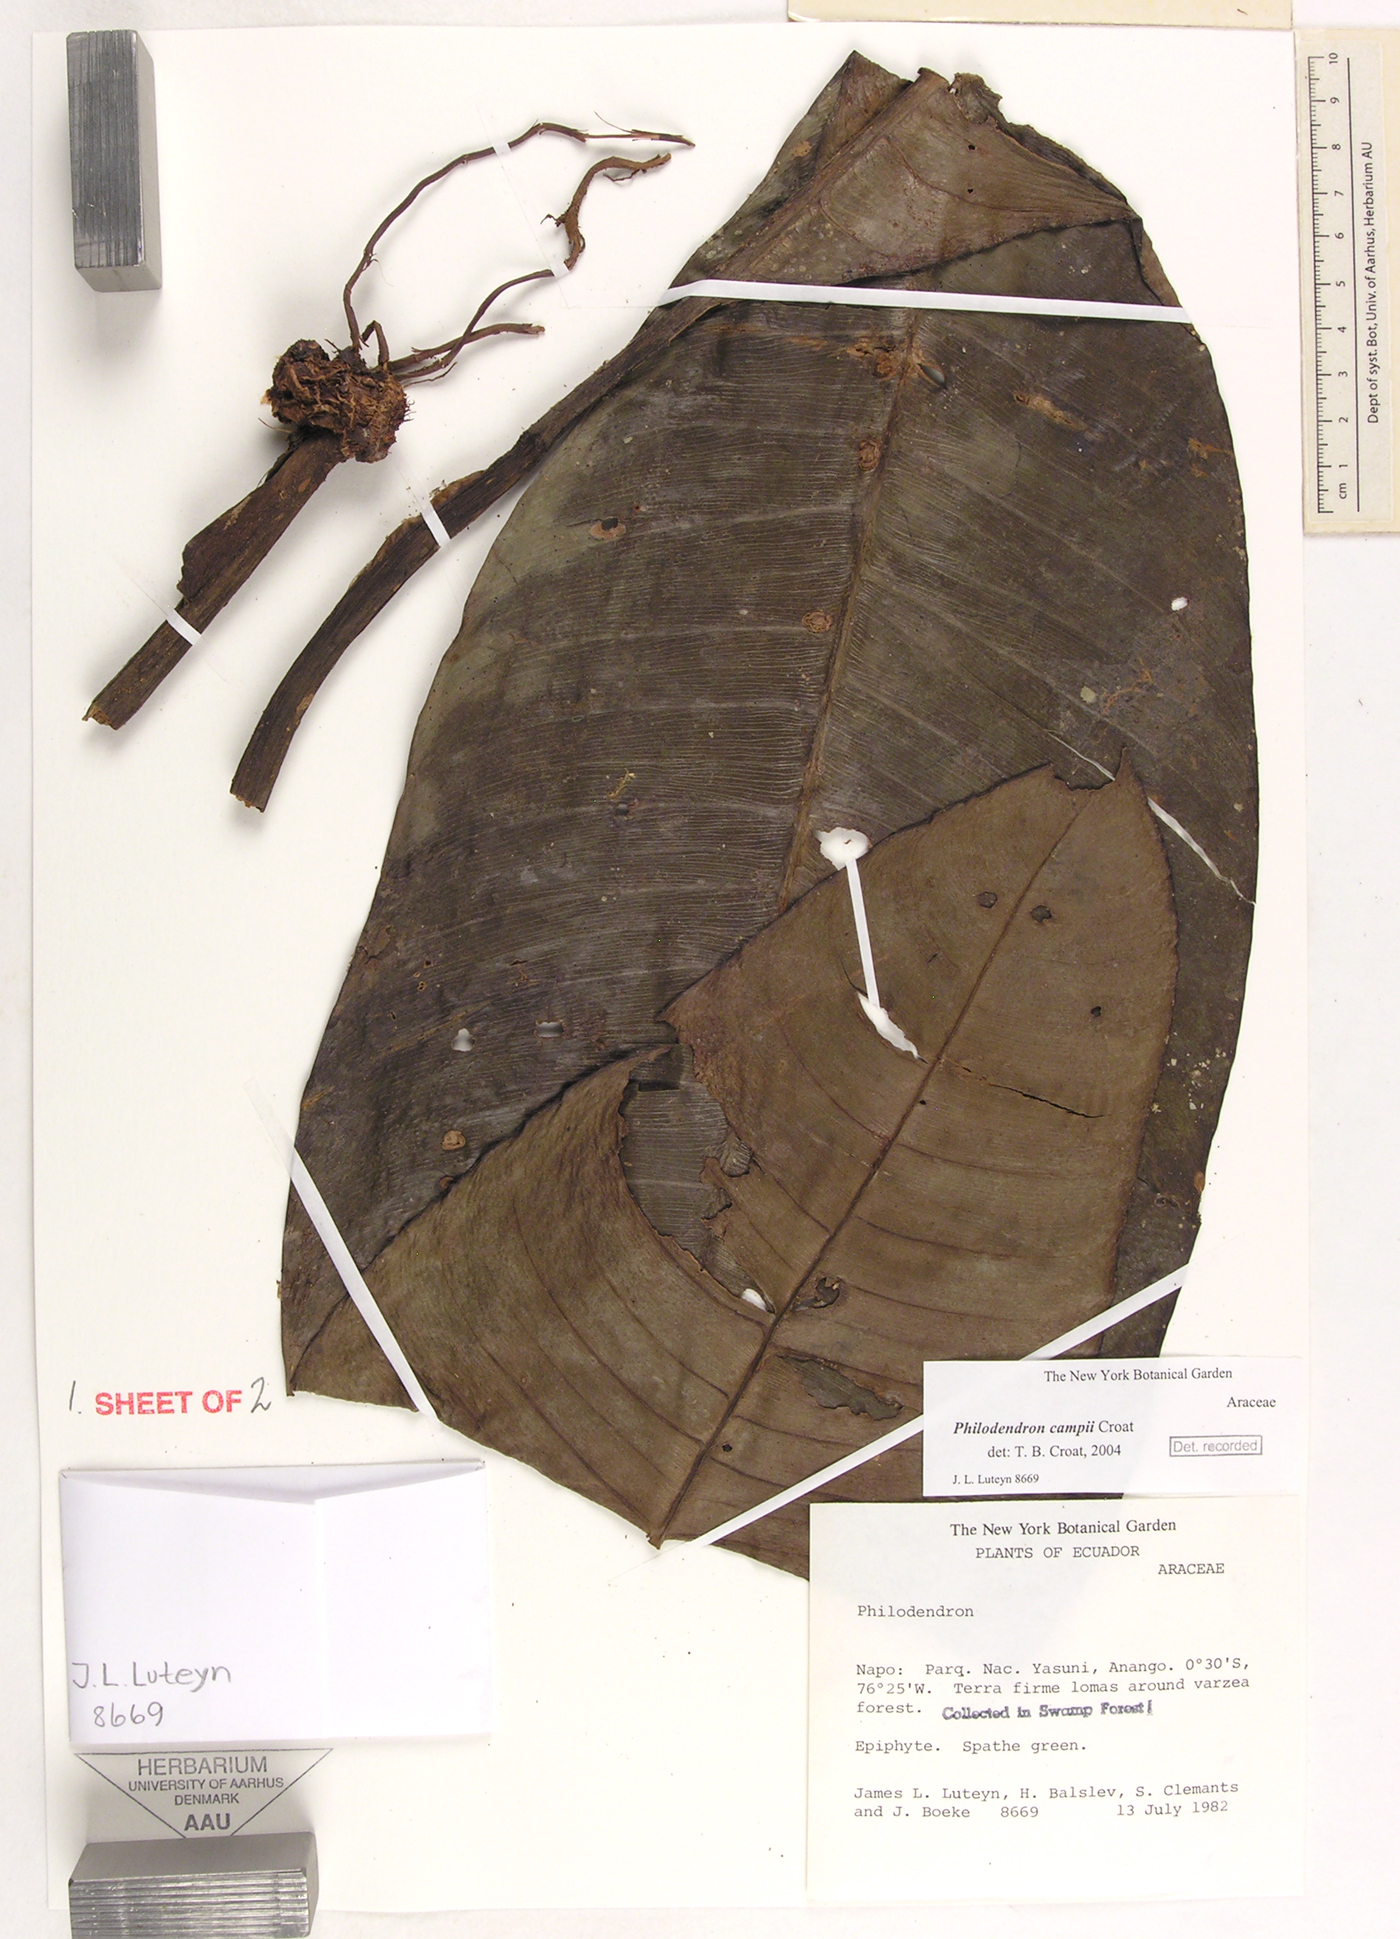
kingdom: Plantae
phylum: Tracheophyta
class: Liliopsida
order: Alismatales
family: Araceae
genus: Philodendron
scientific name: Philodendron campii
